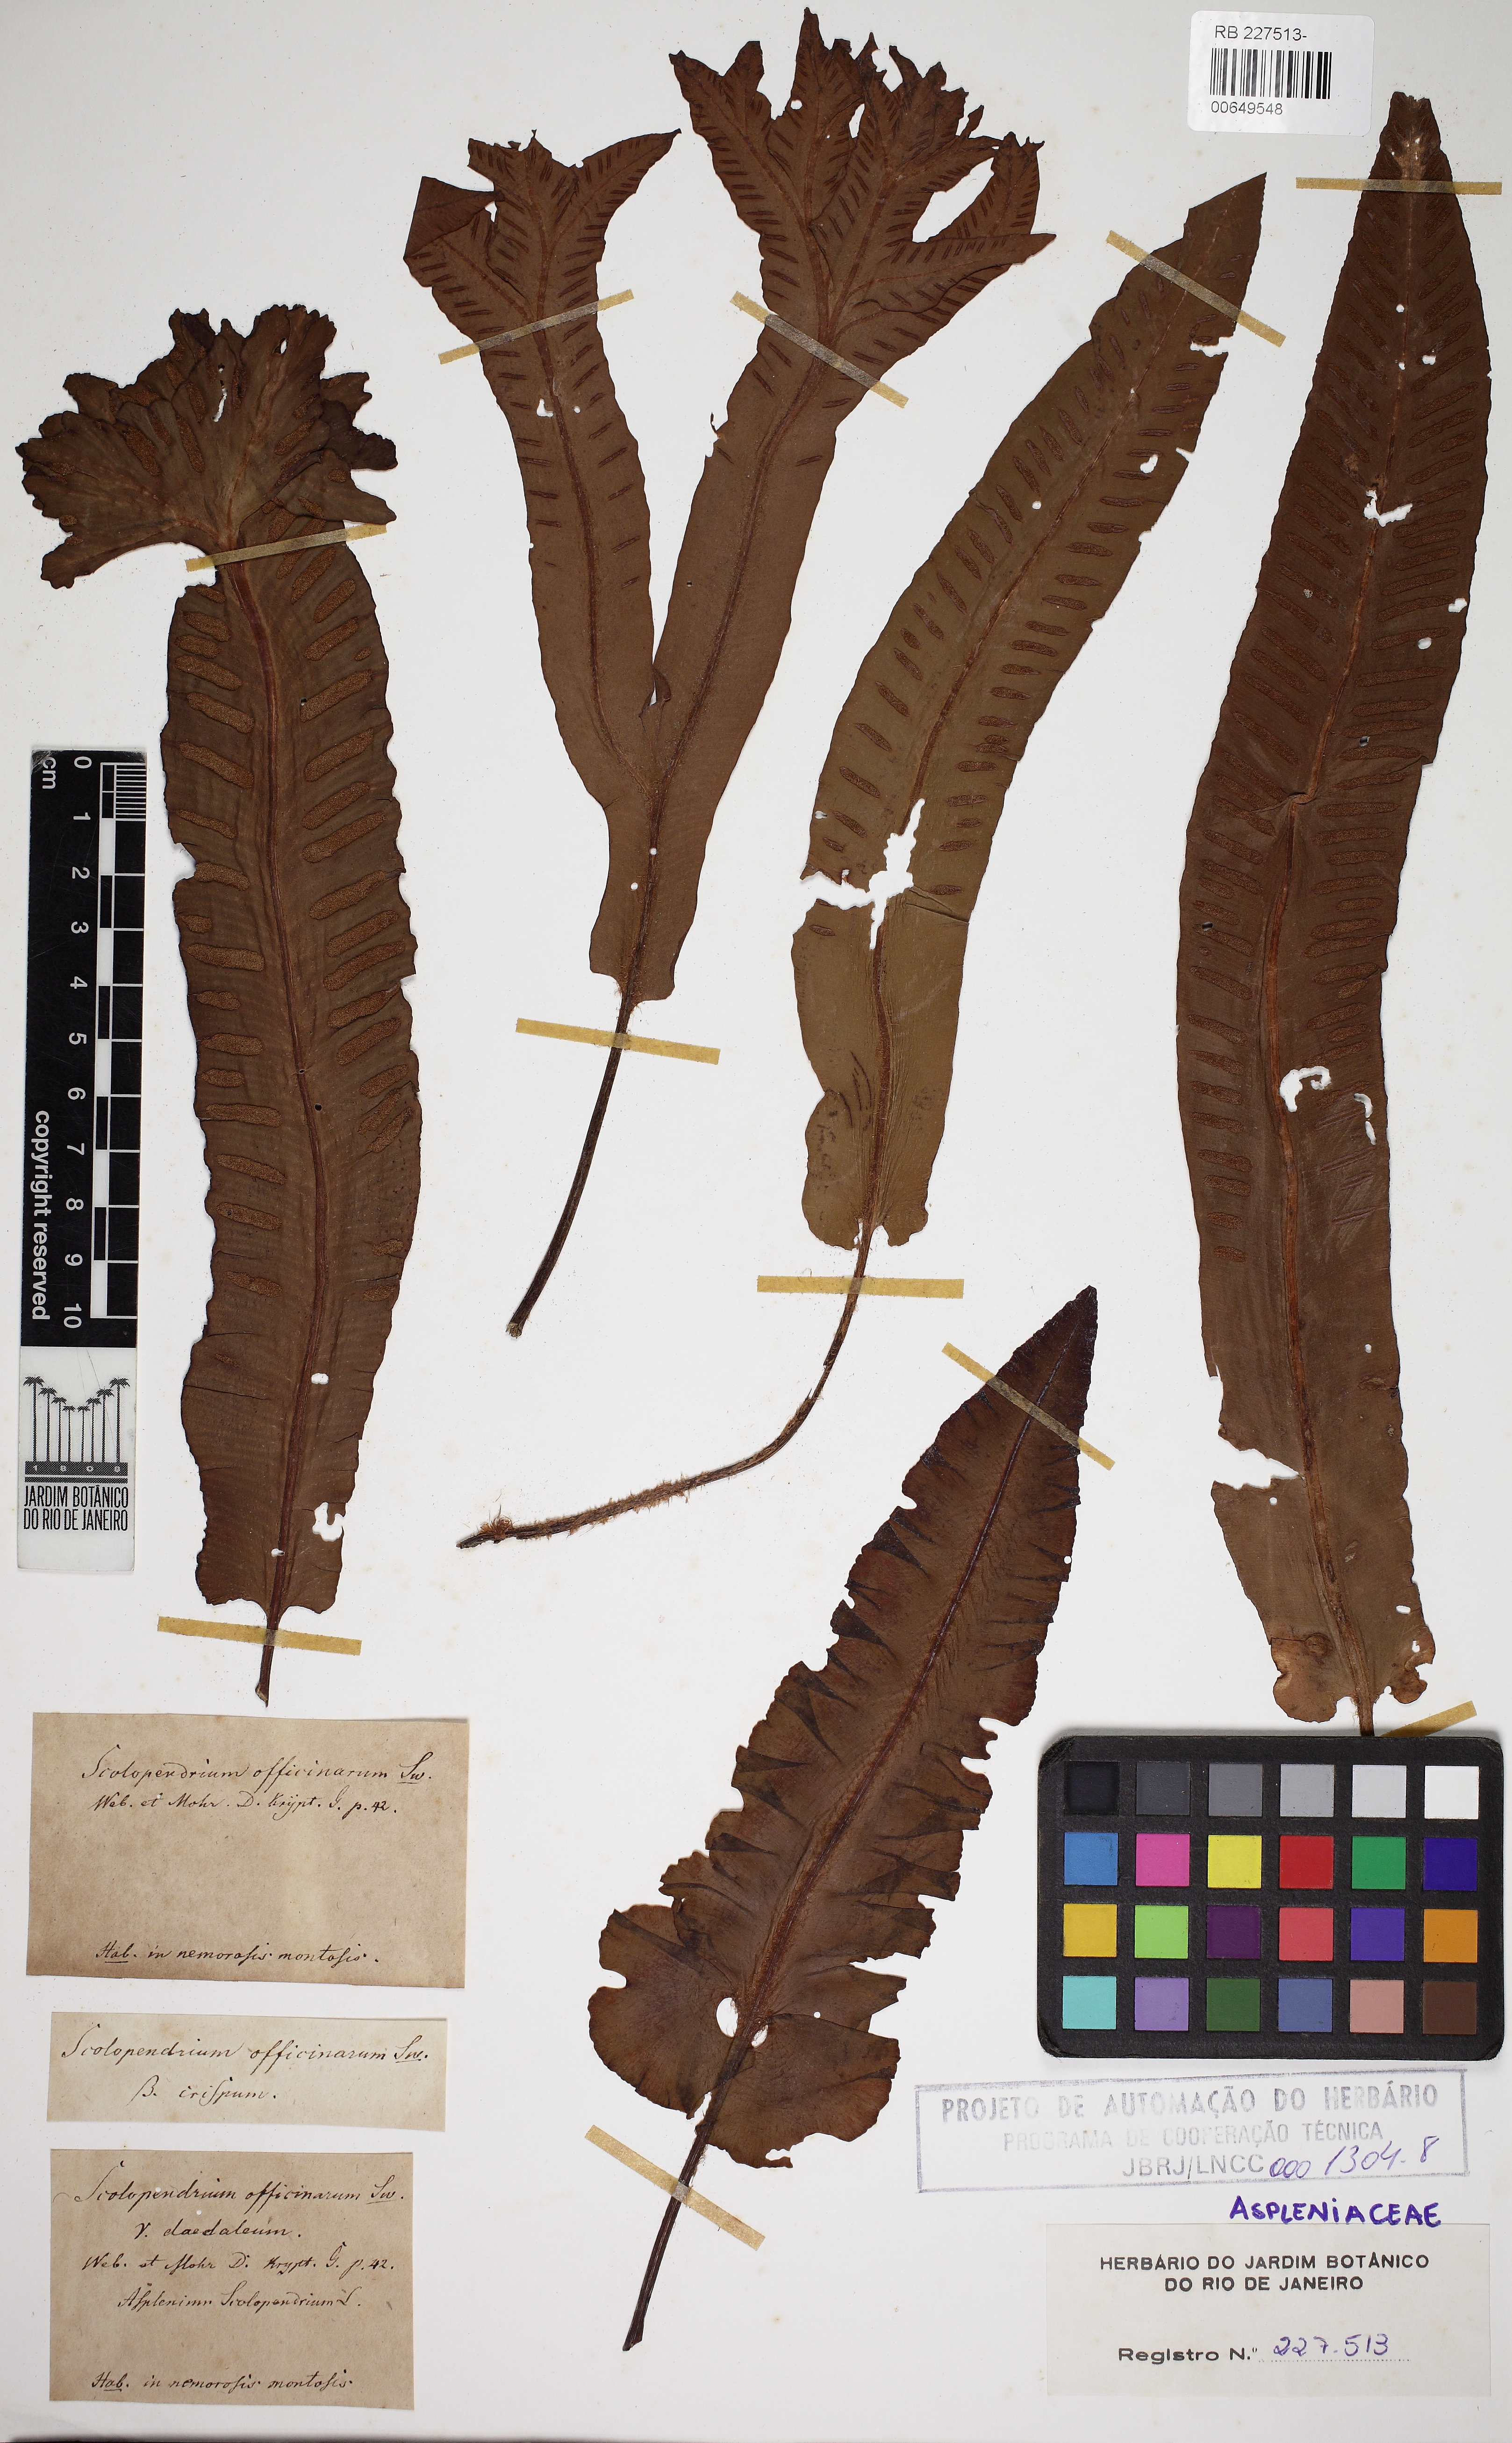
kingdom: Plantae
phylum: Tracheophyta
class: Polypodiopsida
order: Polypodiales
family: Aspleniaceae
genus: Asplenium
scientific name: Asplenium scolopendrium
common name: Hart's-tongue fern
